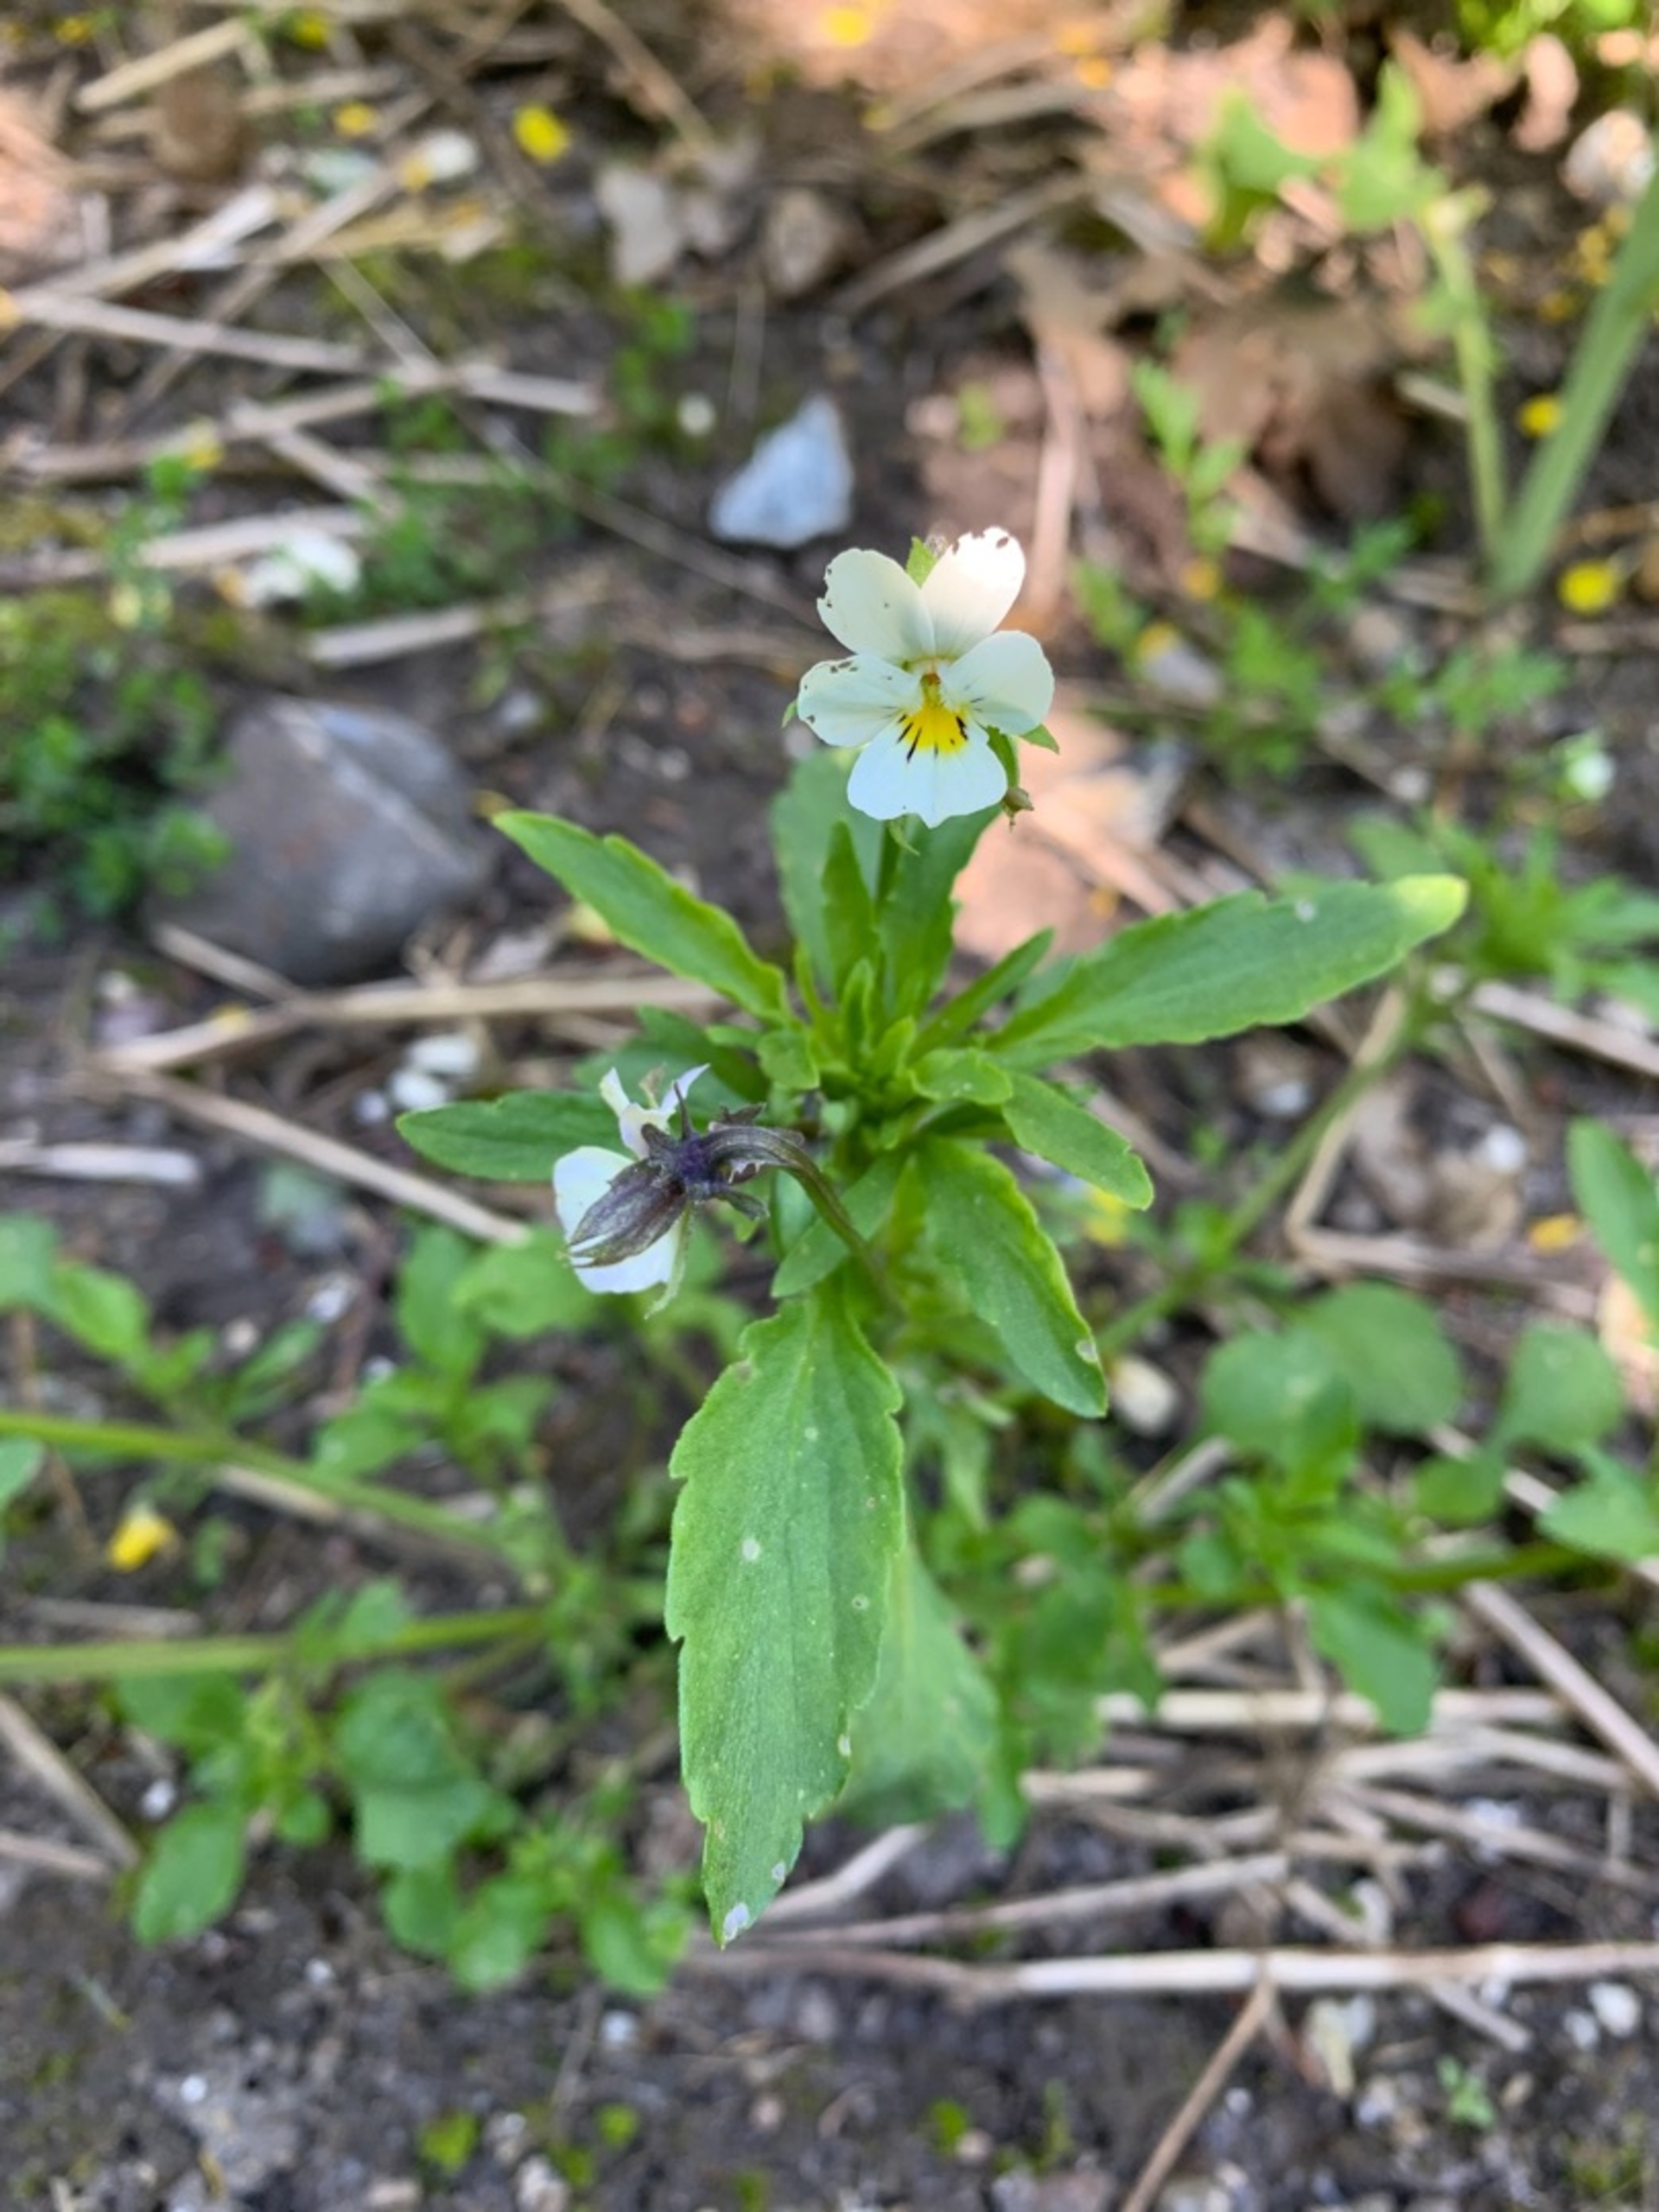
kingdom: Plantae
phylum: Tracheophyta
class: Magnoliopsida
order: Malpighiales
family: Violaceae
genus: Viola
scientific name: Viola arvensis
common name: Ager-stedmoderblomst
